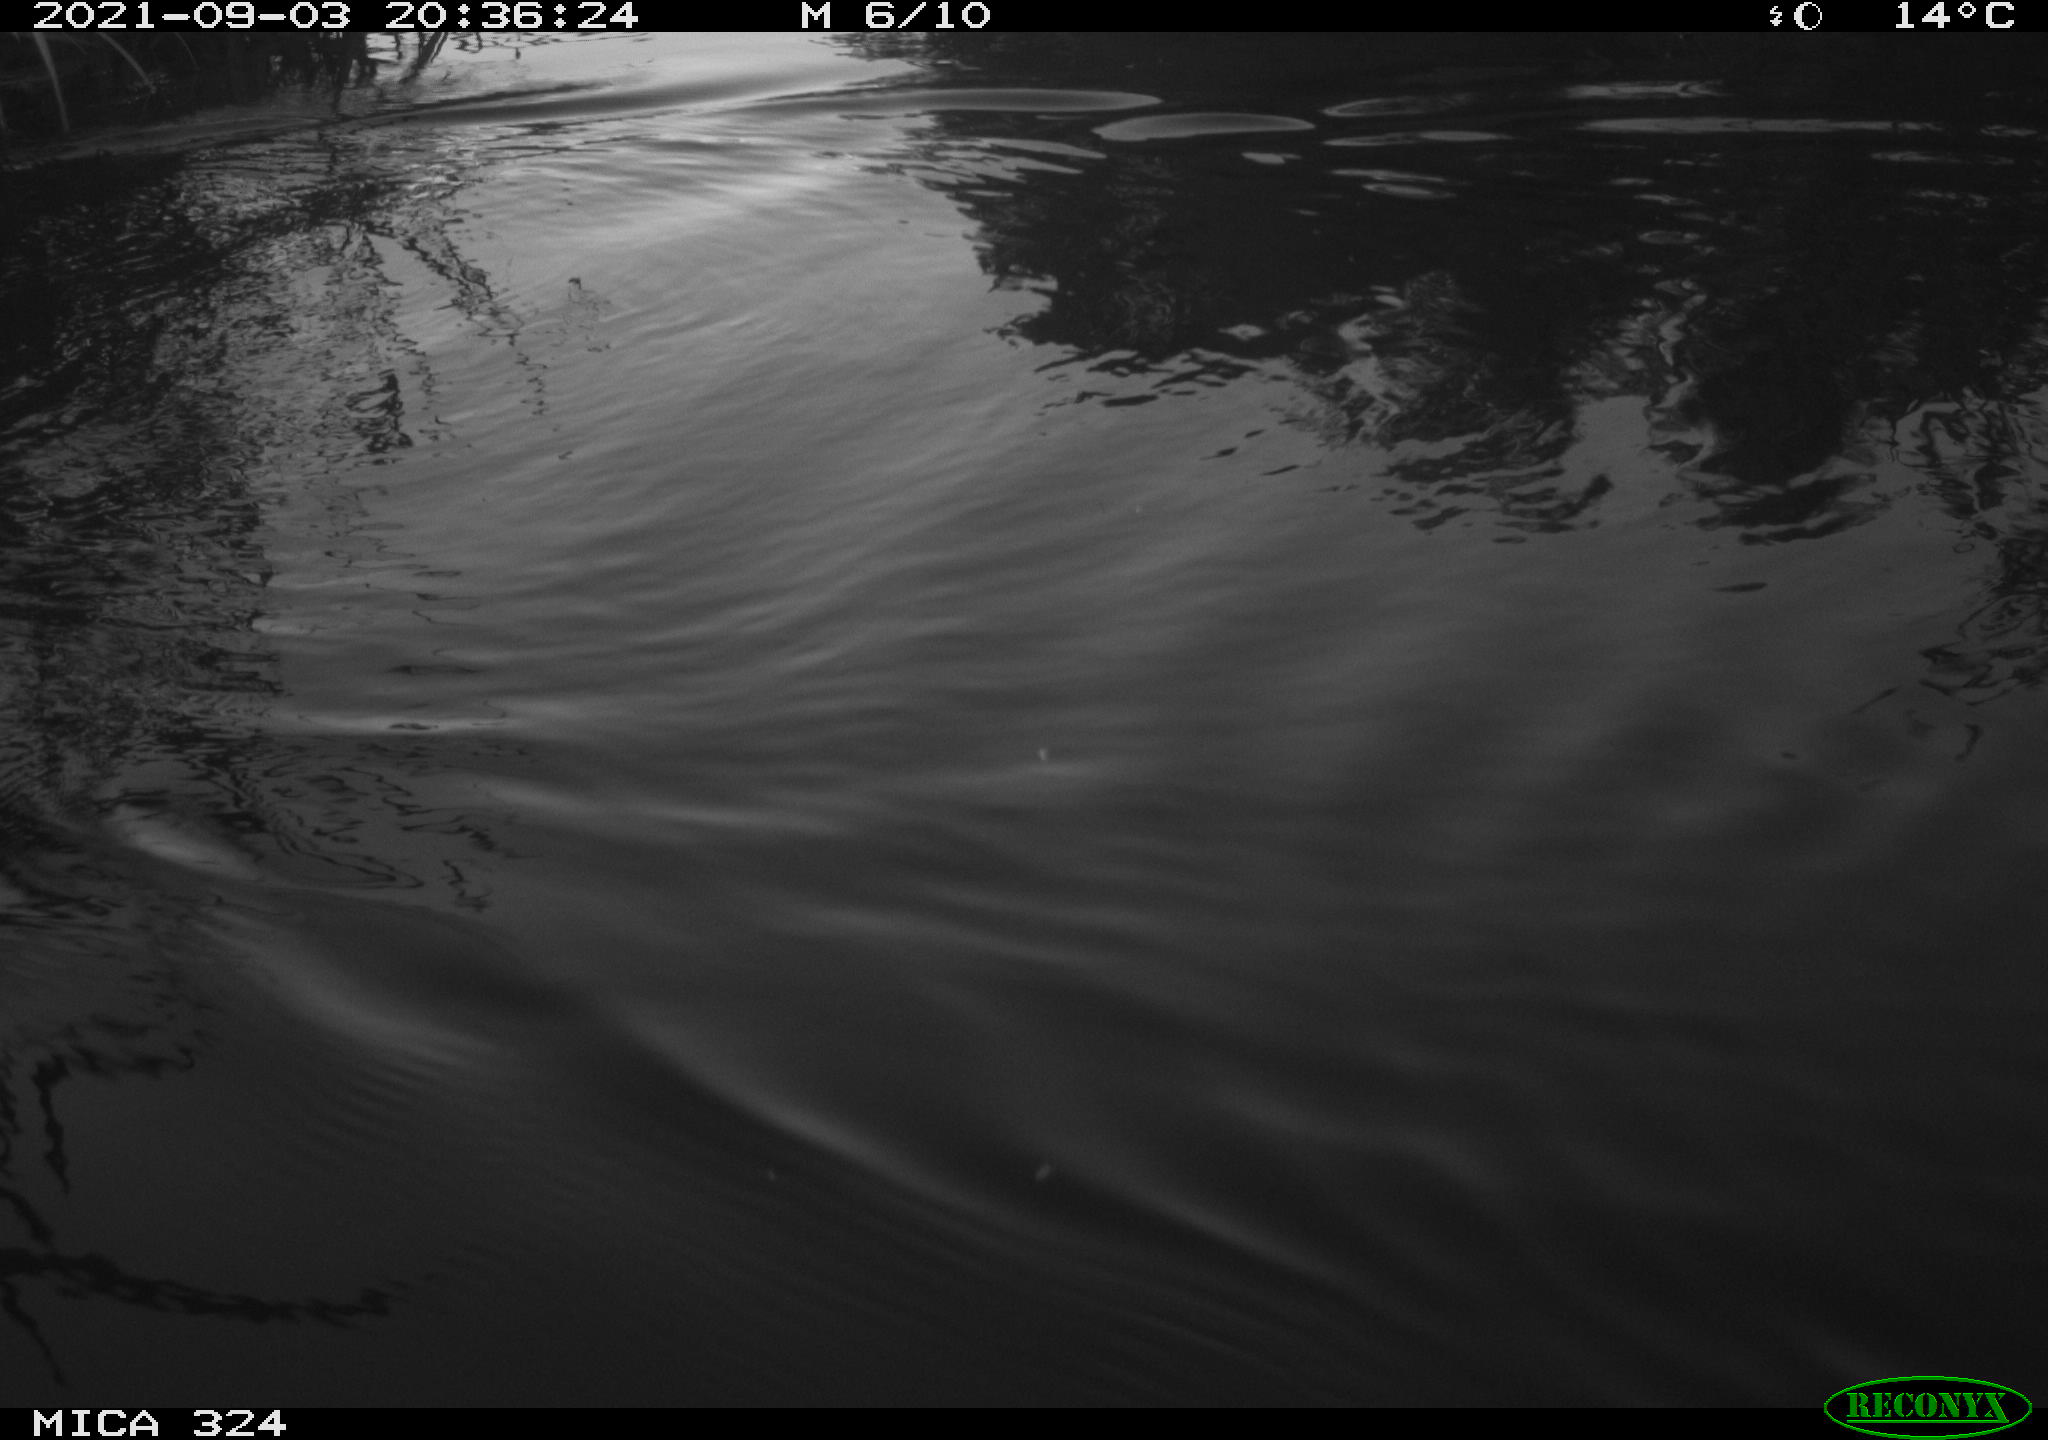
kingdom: Animalia
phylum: Chordata
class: Mammalia
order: Rodentia
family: Muridae
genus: Rattus
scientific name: Rattus norvegicus
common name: Brown rat
